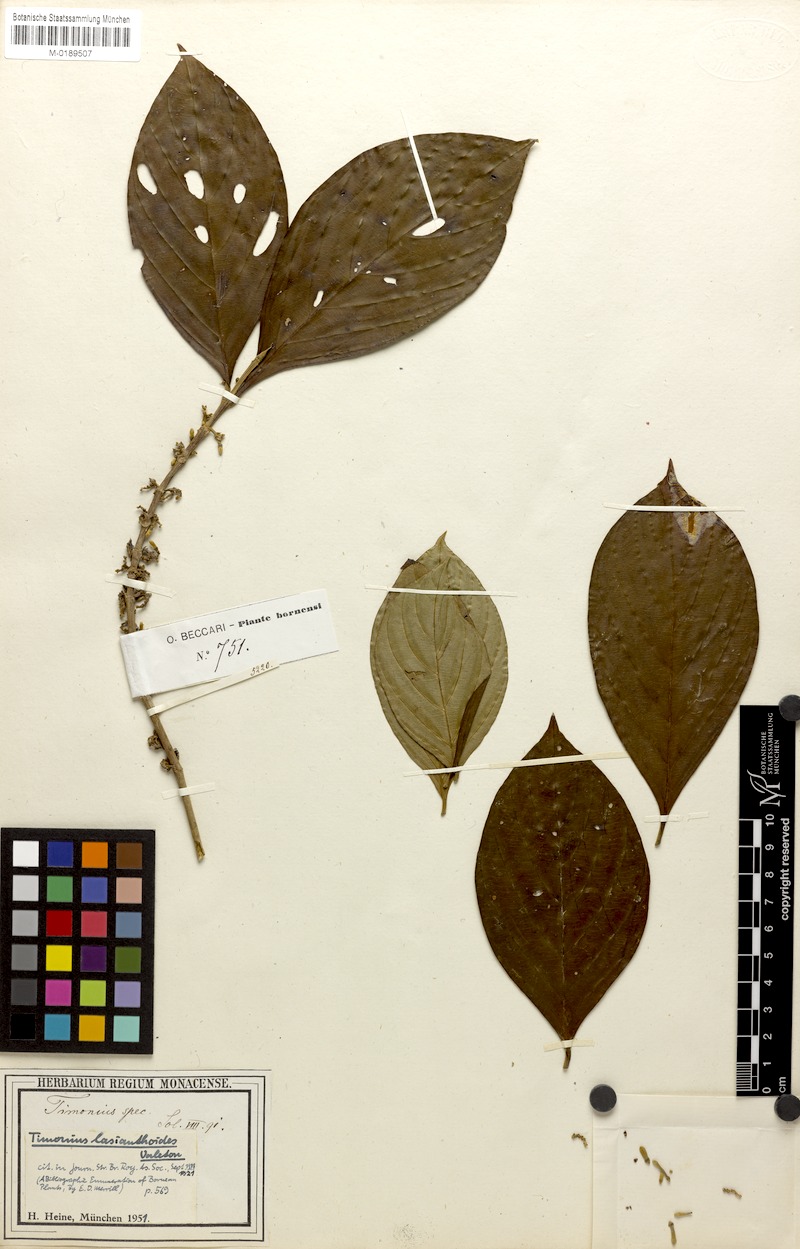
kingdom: Plantae
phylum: Tracheophyta
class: Magnoliopsida
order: Gentianales
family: Rubiaceae
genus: Timonius
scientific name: Timonius lasianthoides
